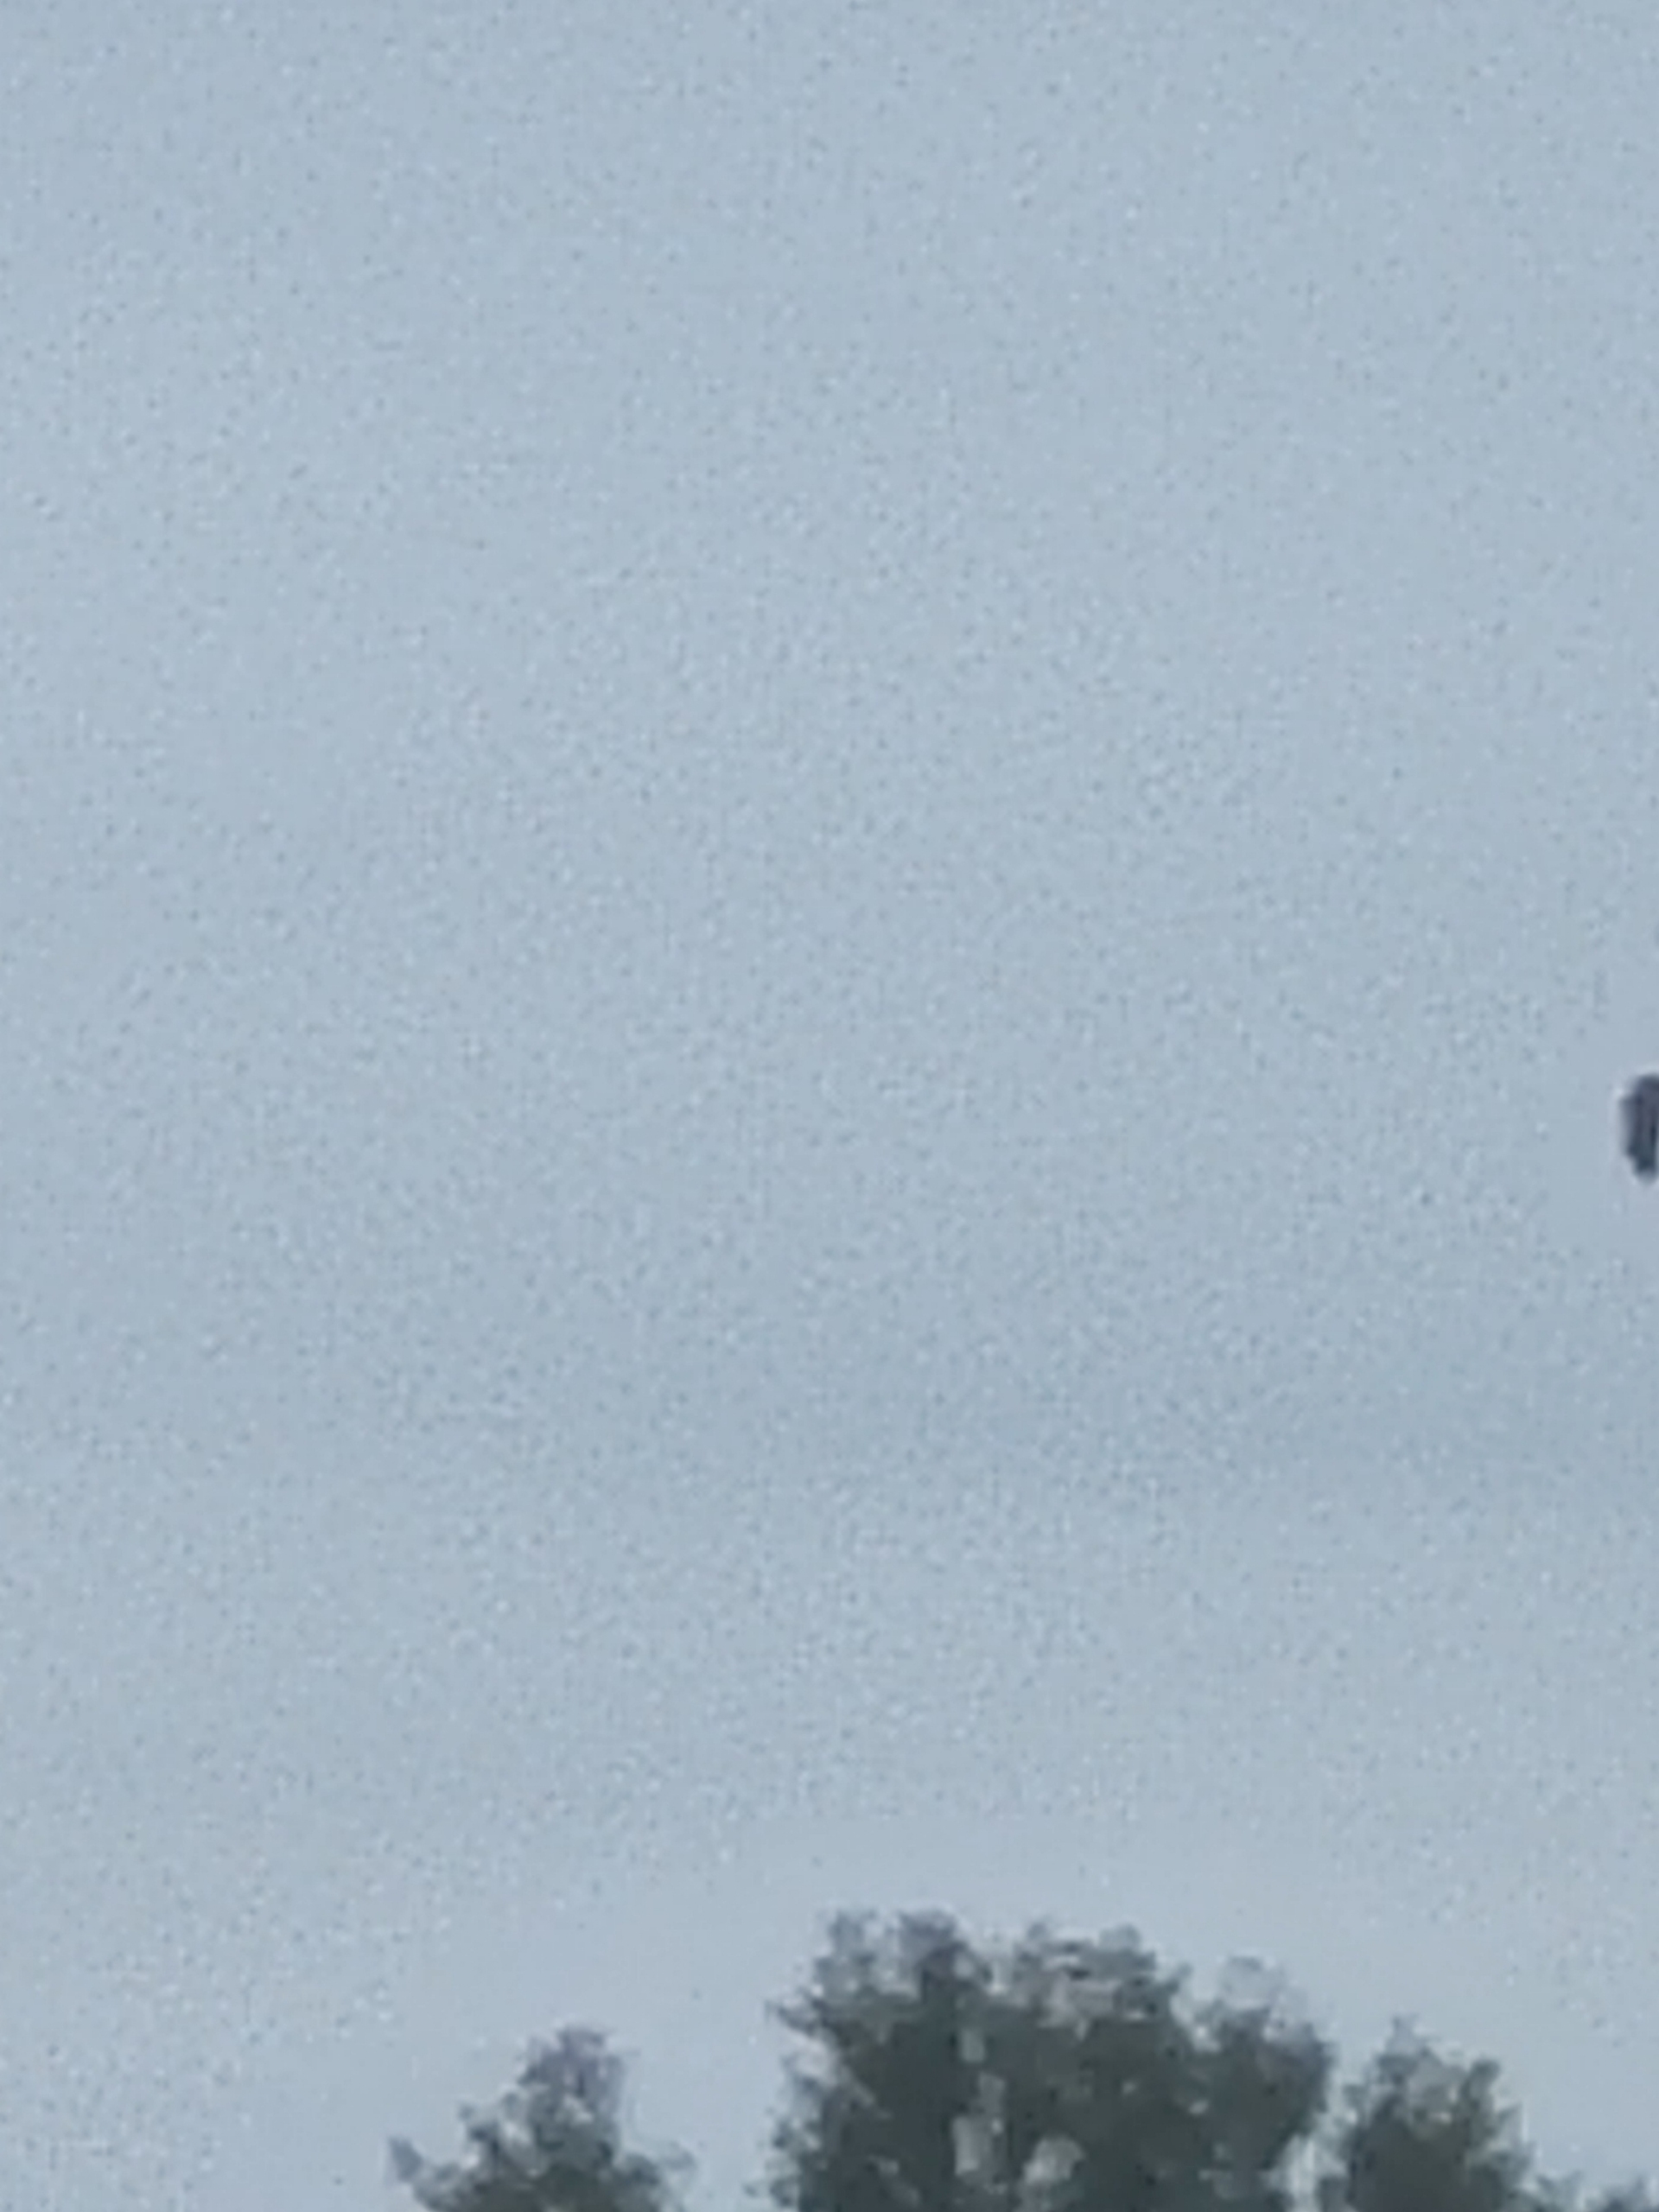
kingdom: Animalia
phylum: Chordata
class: Aves
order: Accipitriformes
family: Accipitridae
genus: Circus
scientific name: Circus aeruginosus
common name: Rørhøg
